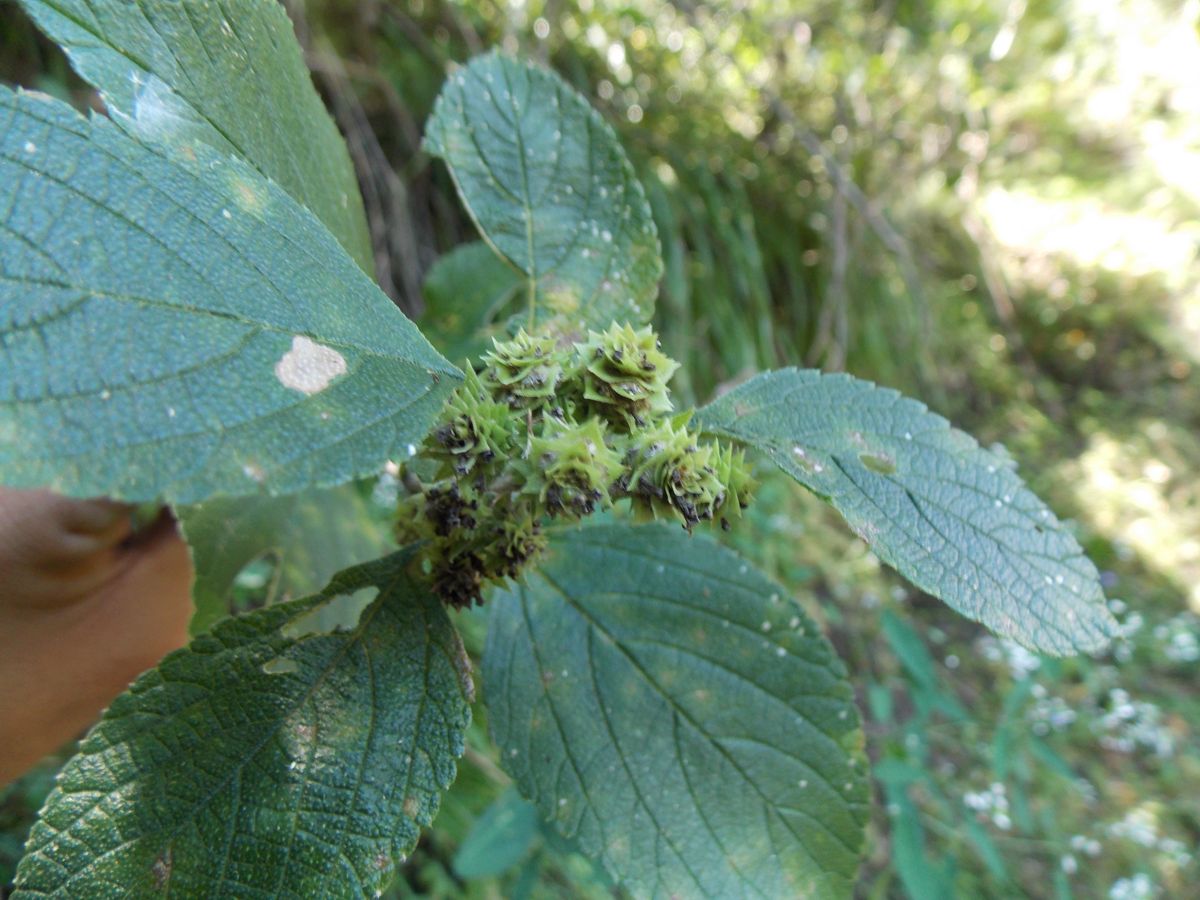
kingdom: Plantae
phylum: Tracheophyta
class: Magnoliopsida
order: Lamiales
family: Verbenaceae
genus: Lippia
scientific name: Lippia cardiostegia
